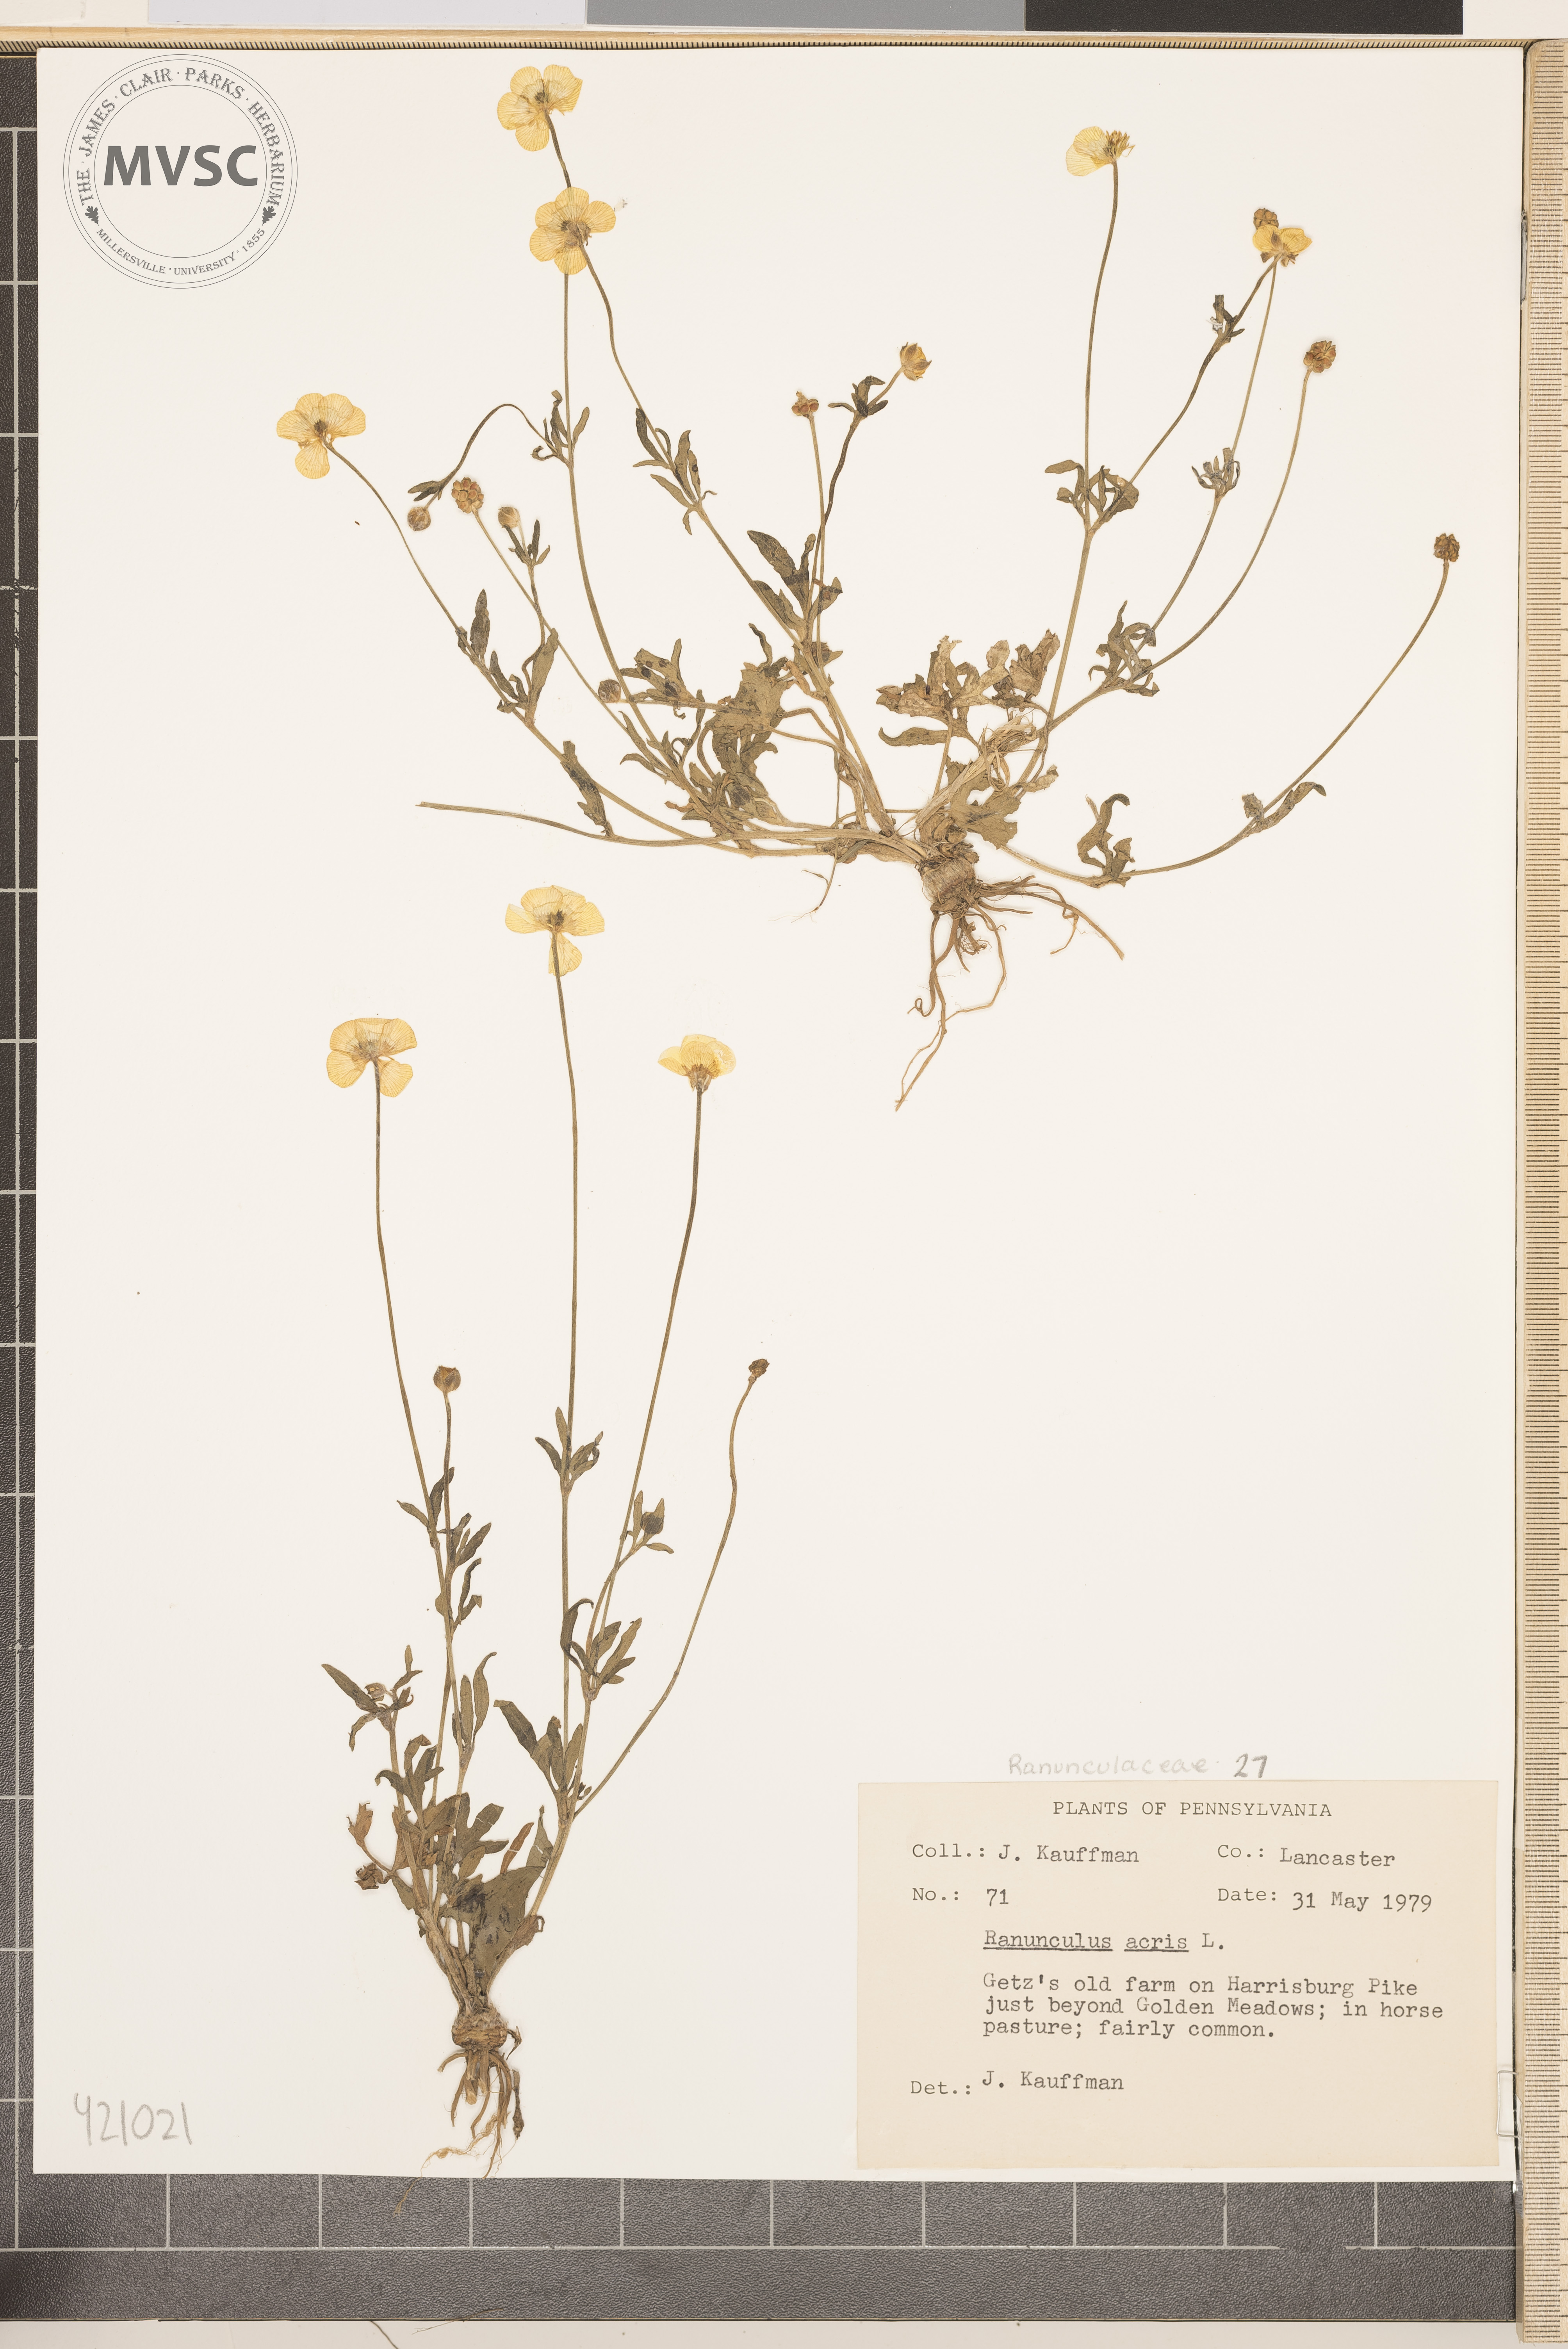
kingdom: Plantae
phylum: Tracheophyta
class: Magnoliopsida
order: Ranunculales
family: Ranunculaceae
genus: Ranunculus
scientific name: Ranunculus acris
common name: tall buttercup
